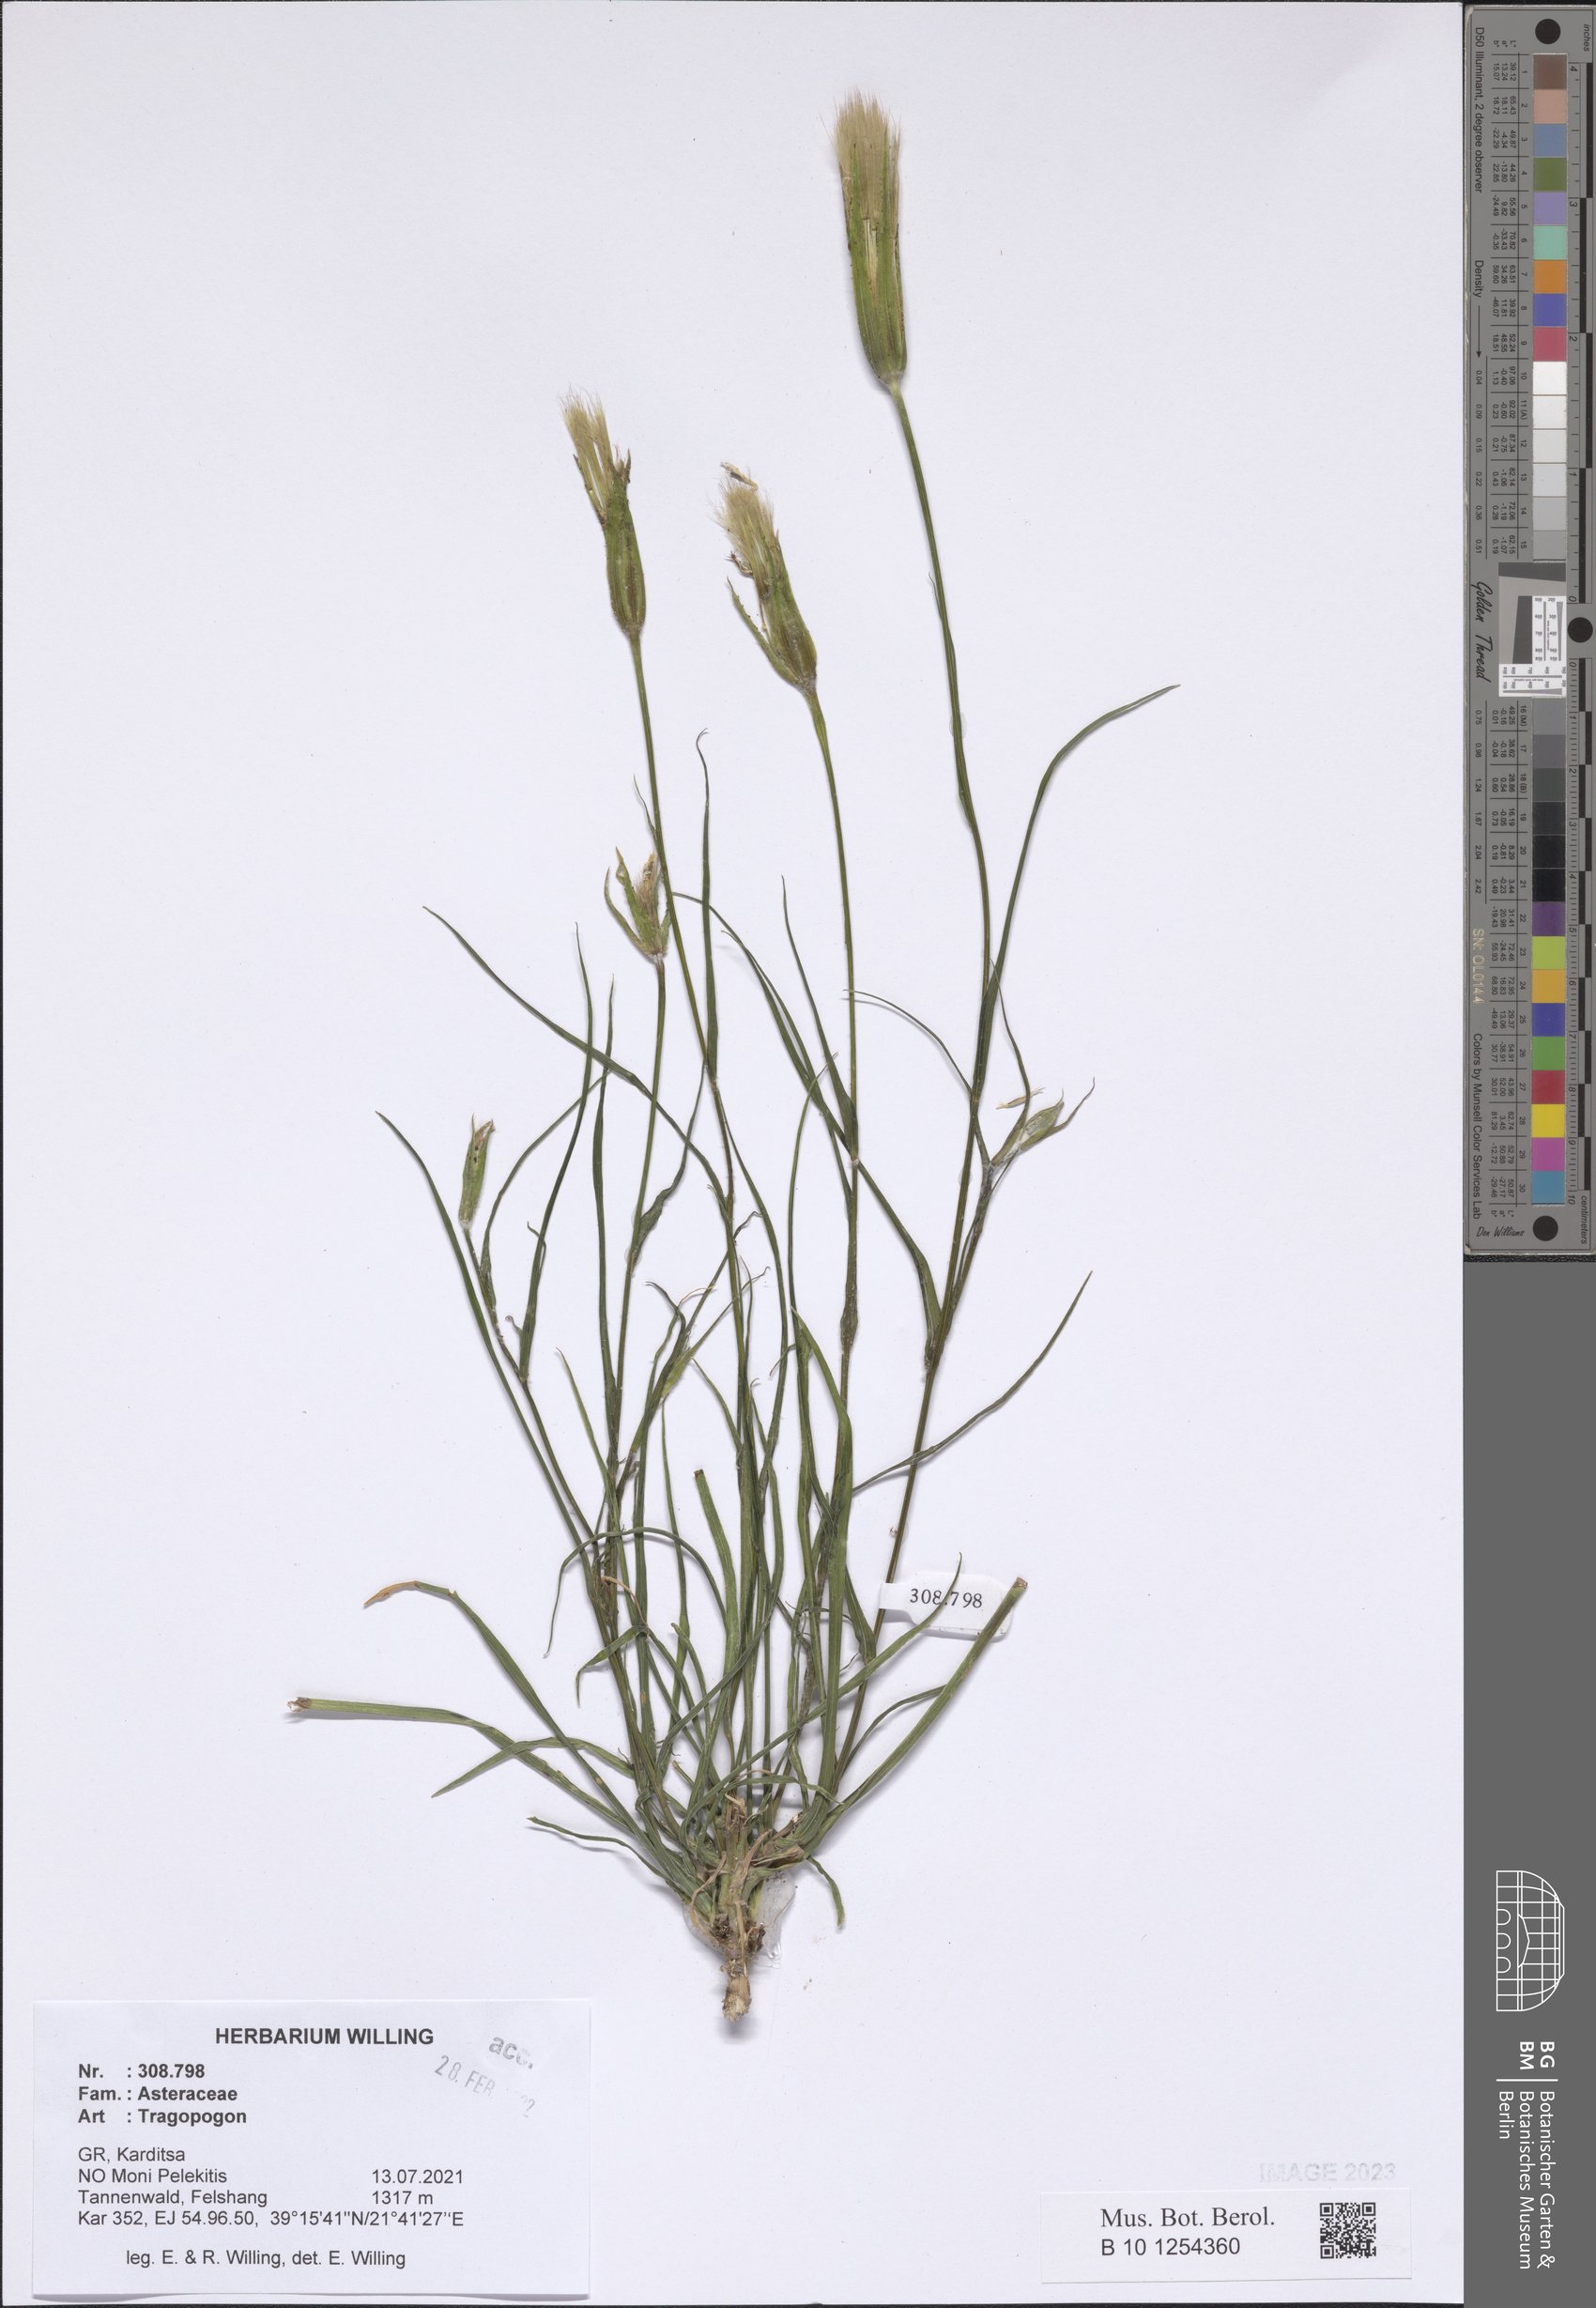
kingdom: Plantae
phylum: Tracheophyta
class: Magnoliopsida
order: Asterales
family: Asteraceae
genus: Tragopogon
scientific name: Tragopogon
